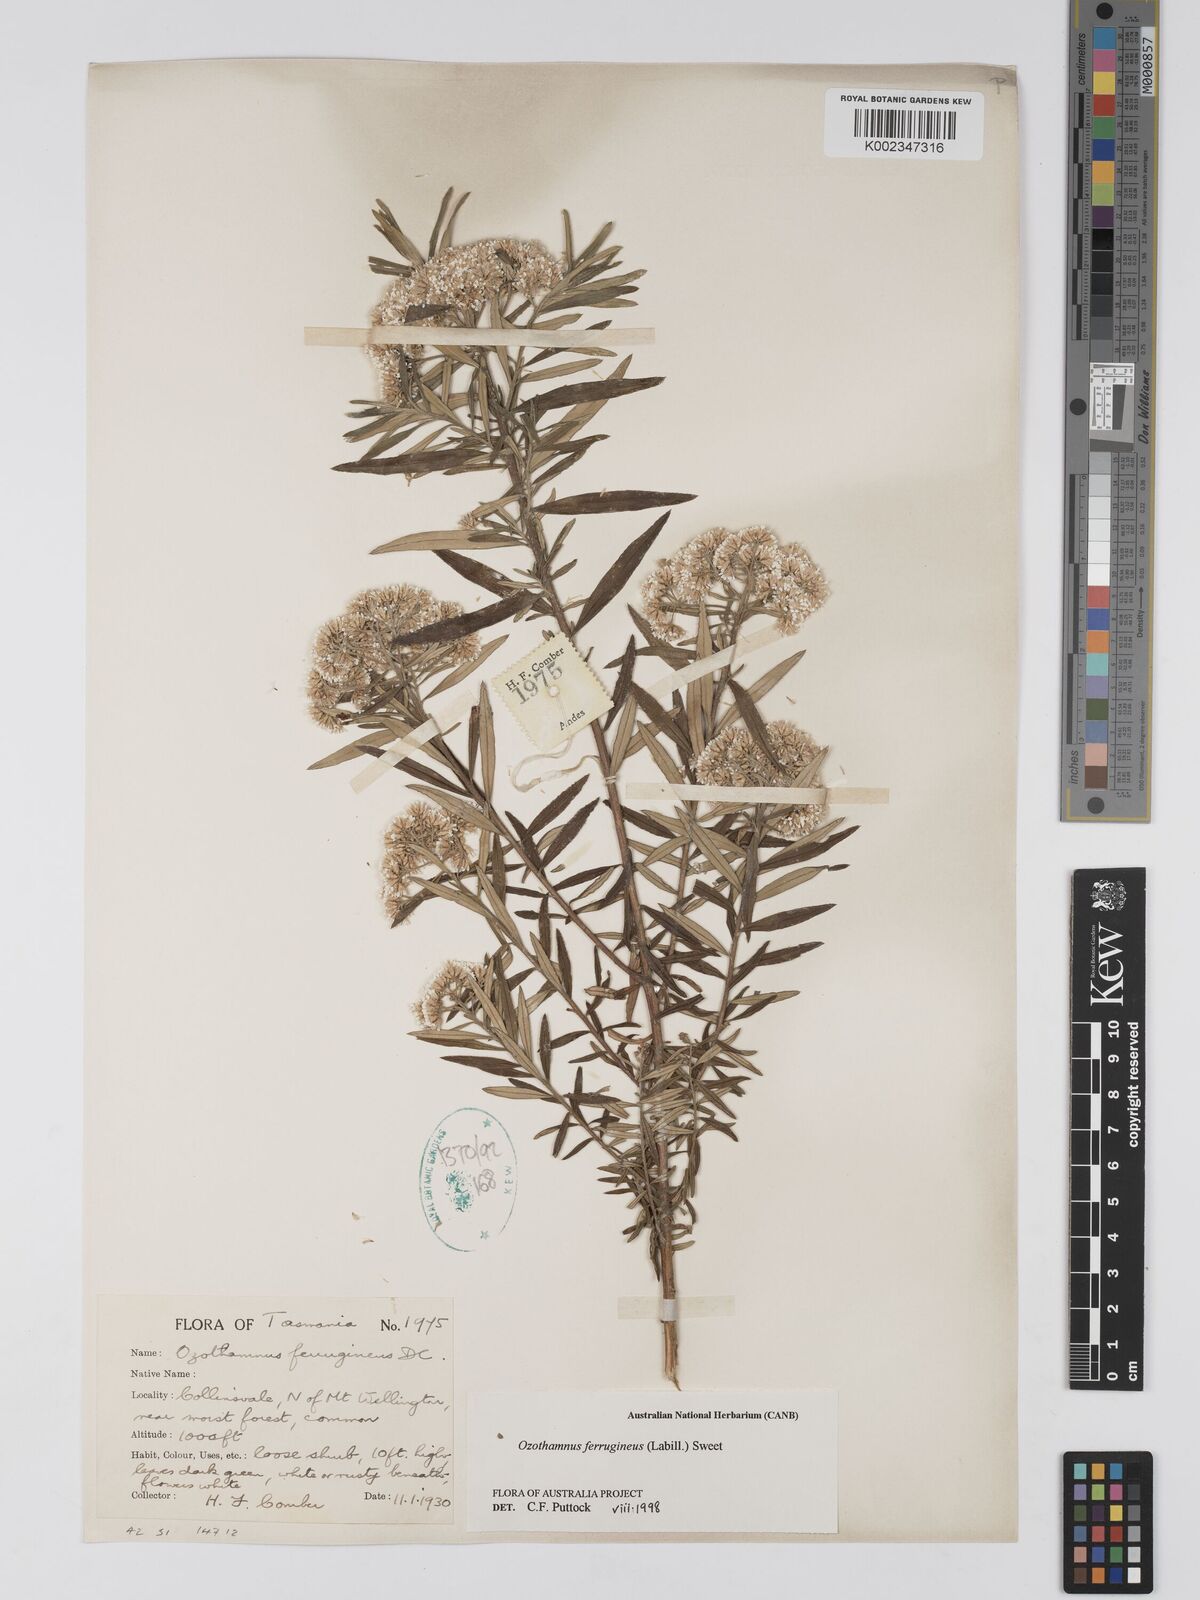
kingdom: Plantae
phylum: Tracheophyta
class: Magnoliopsida
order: Asterales
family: Asteraceae
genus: Ozothamnus
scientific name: Ozothamnus ferrugineus
